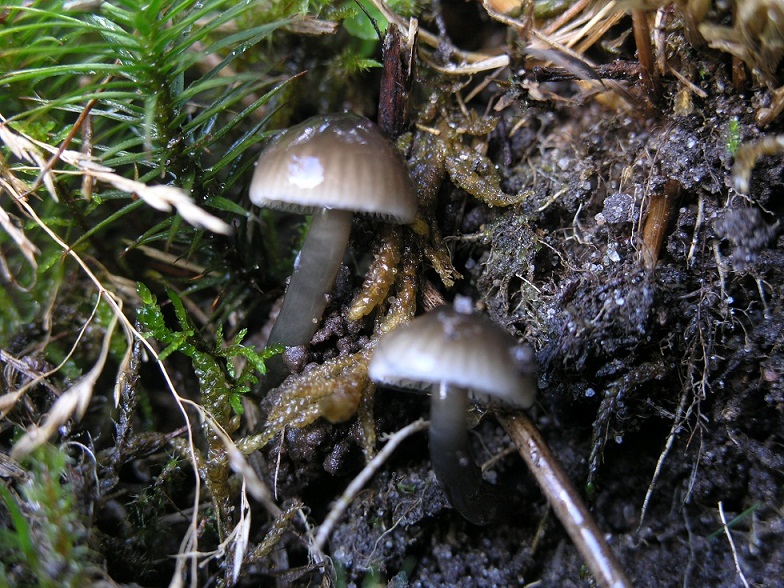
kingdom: Fungi
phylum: Basidiomycota
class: Agaricomycetes
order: Agaricales
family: Hygrophoraceae
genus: Gliophorus
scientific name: Gliophorus irrigatus
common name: slimet vokshat
